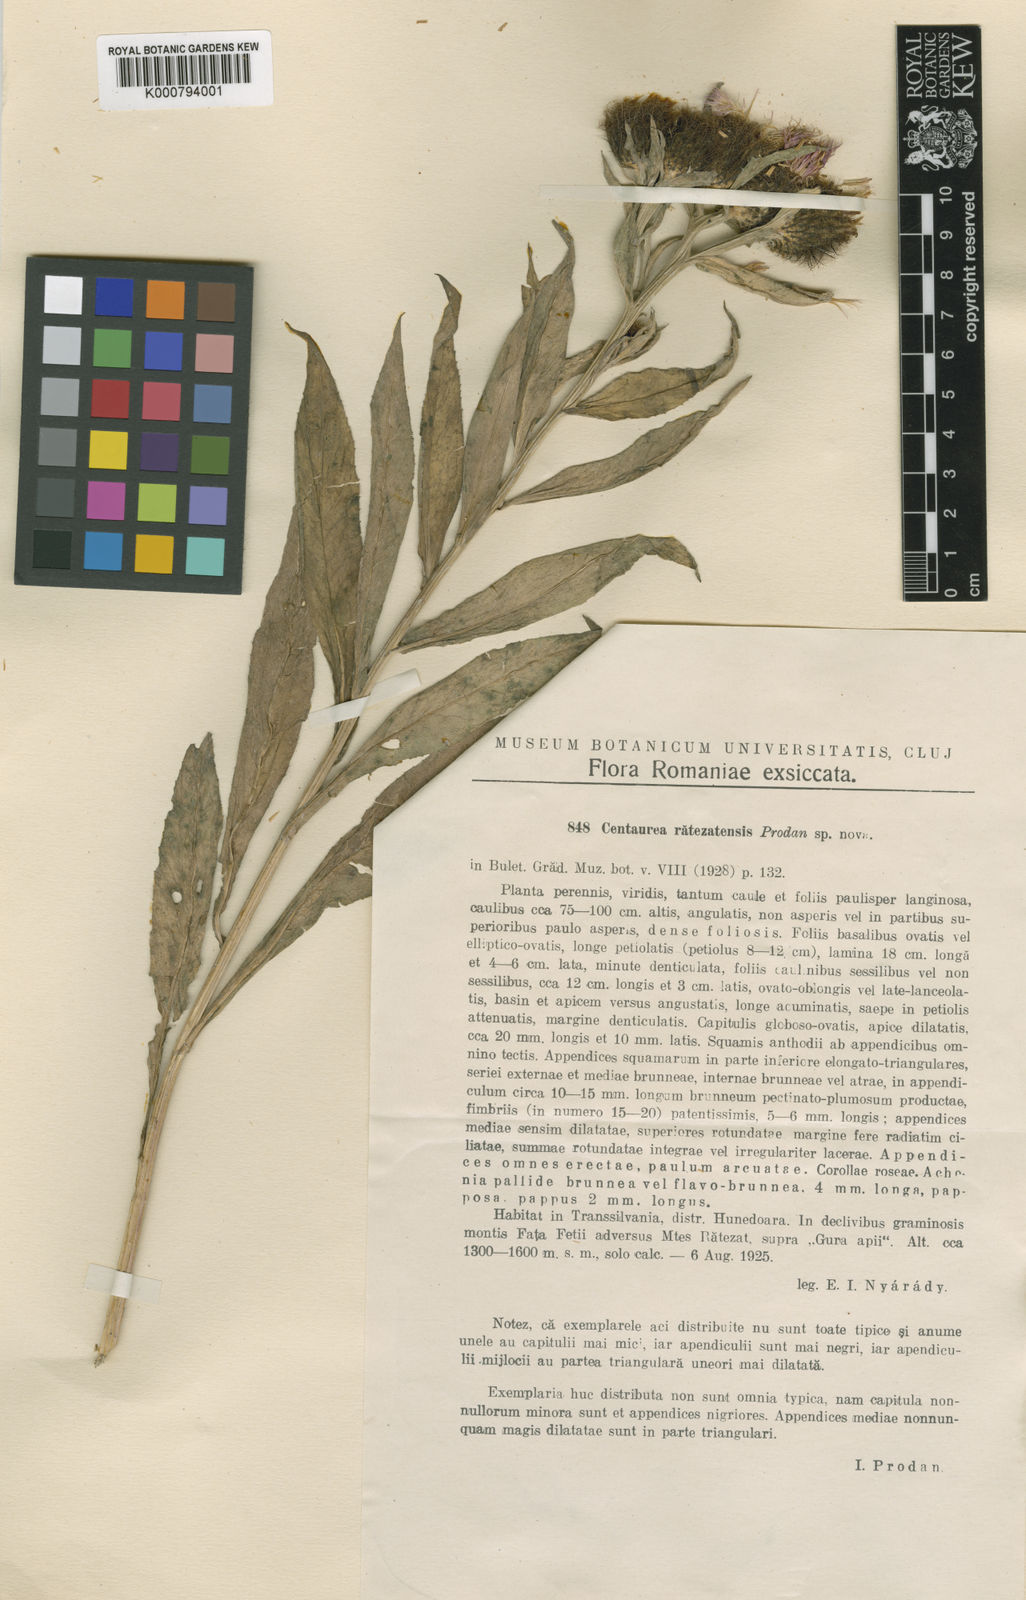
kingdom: Plantae
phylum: Tracheophyta
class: Magnoliopsida
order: Asterales
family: Asteraceae
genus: Centaurea
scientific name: Centaurea phrygia
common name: Wig knapweed
